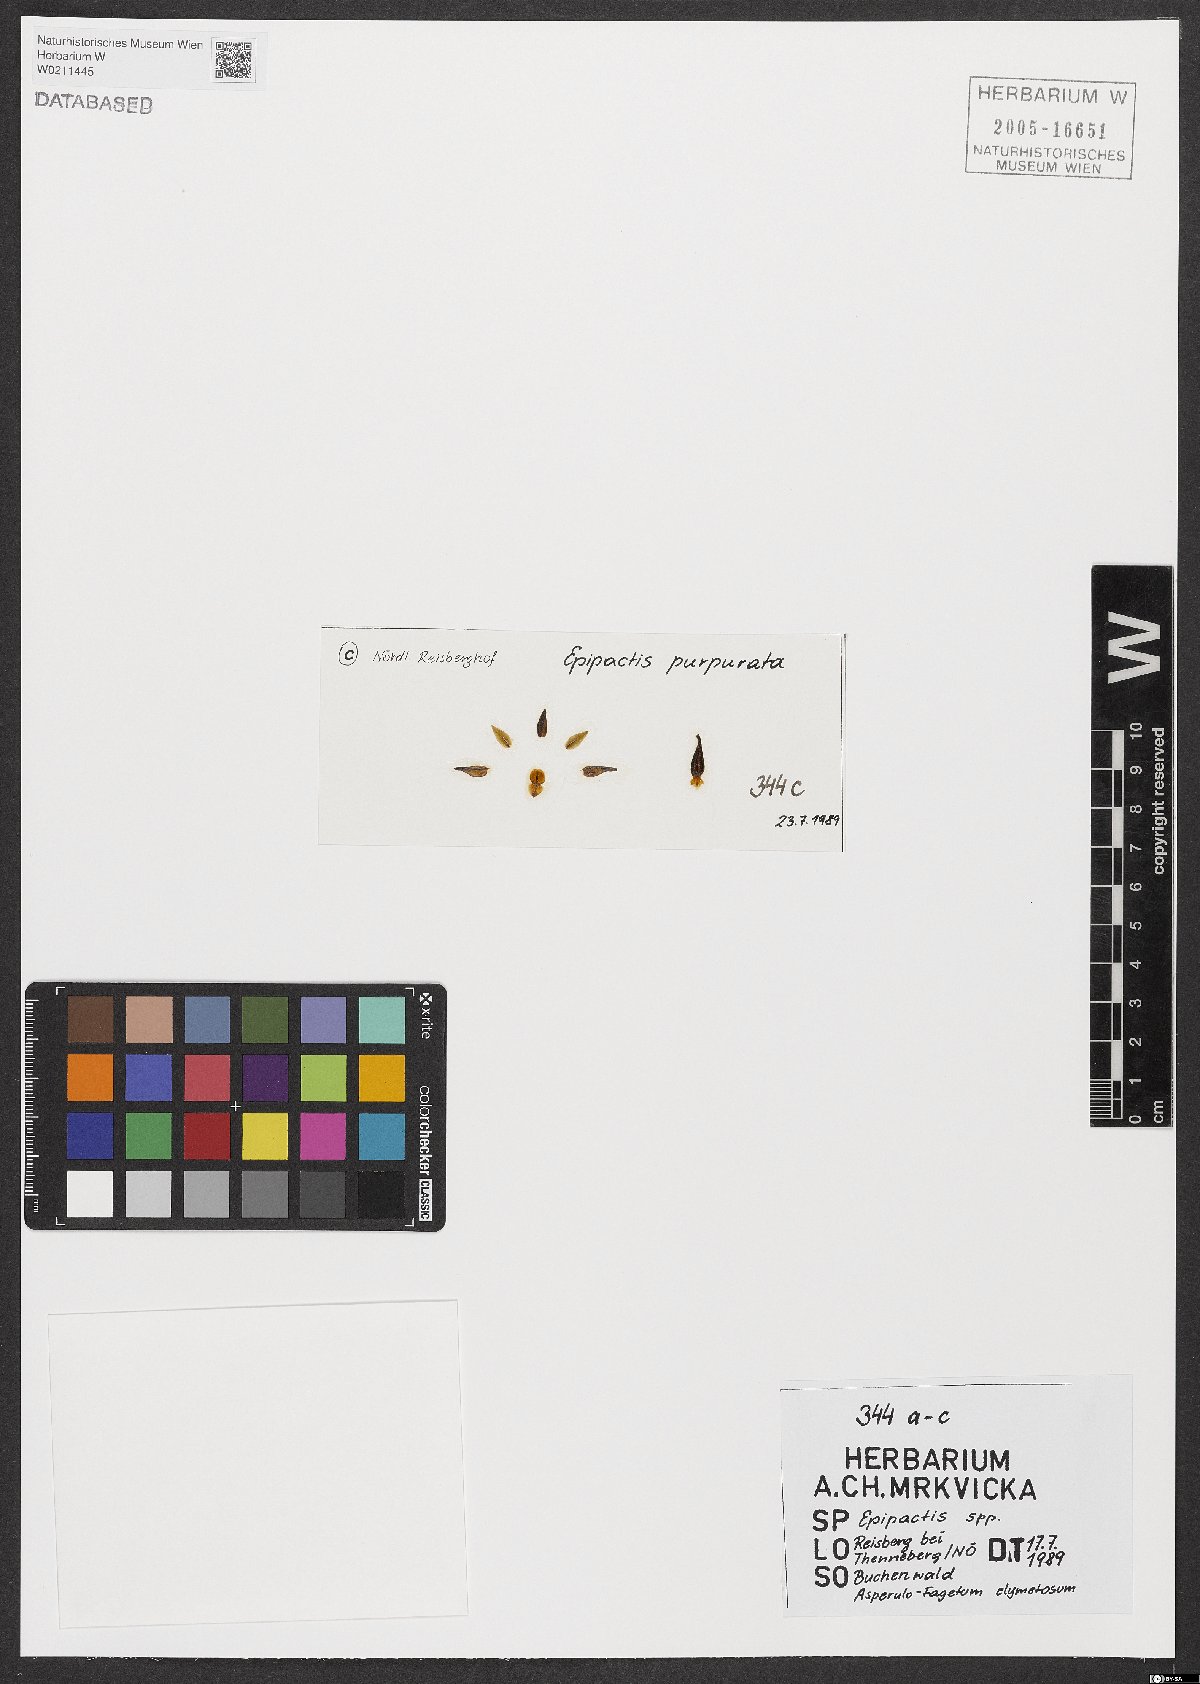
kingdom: Plantae
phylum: Tracheophyta
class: Liliopsida
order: Asparagales
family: Orchidaceae
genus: Epipactis
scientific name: Epipactis purpurata
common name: Violet helleborine
